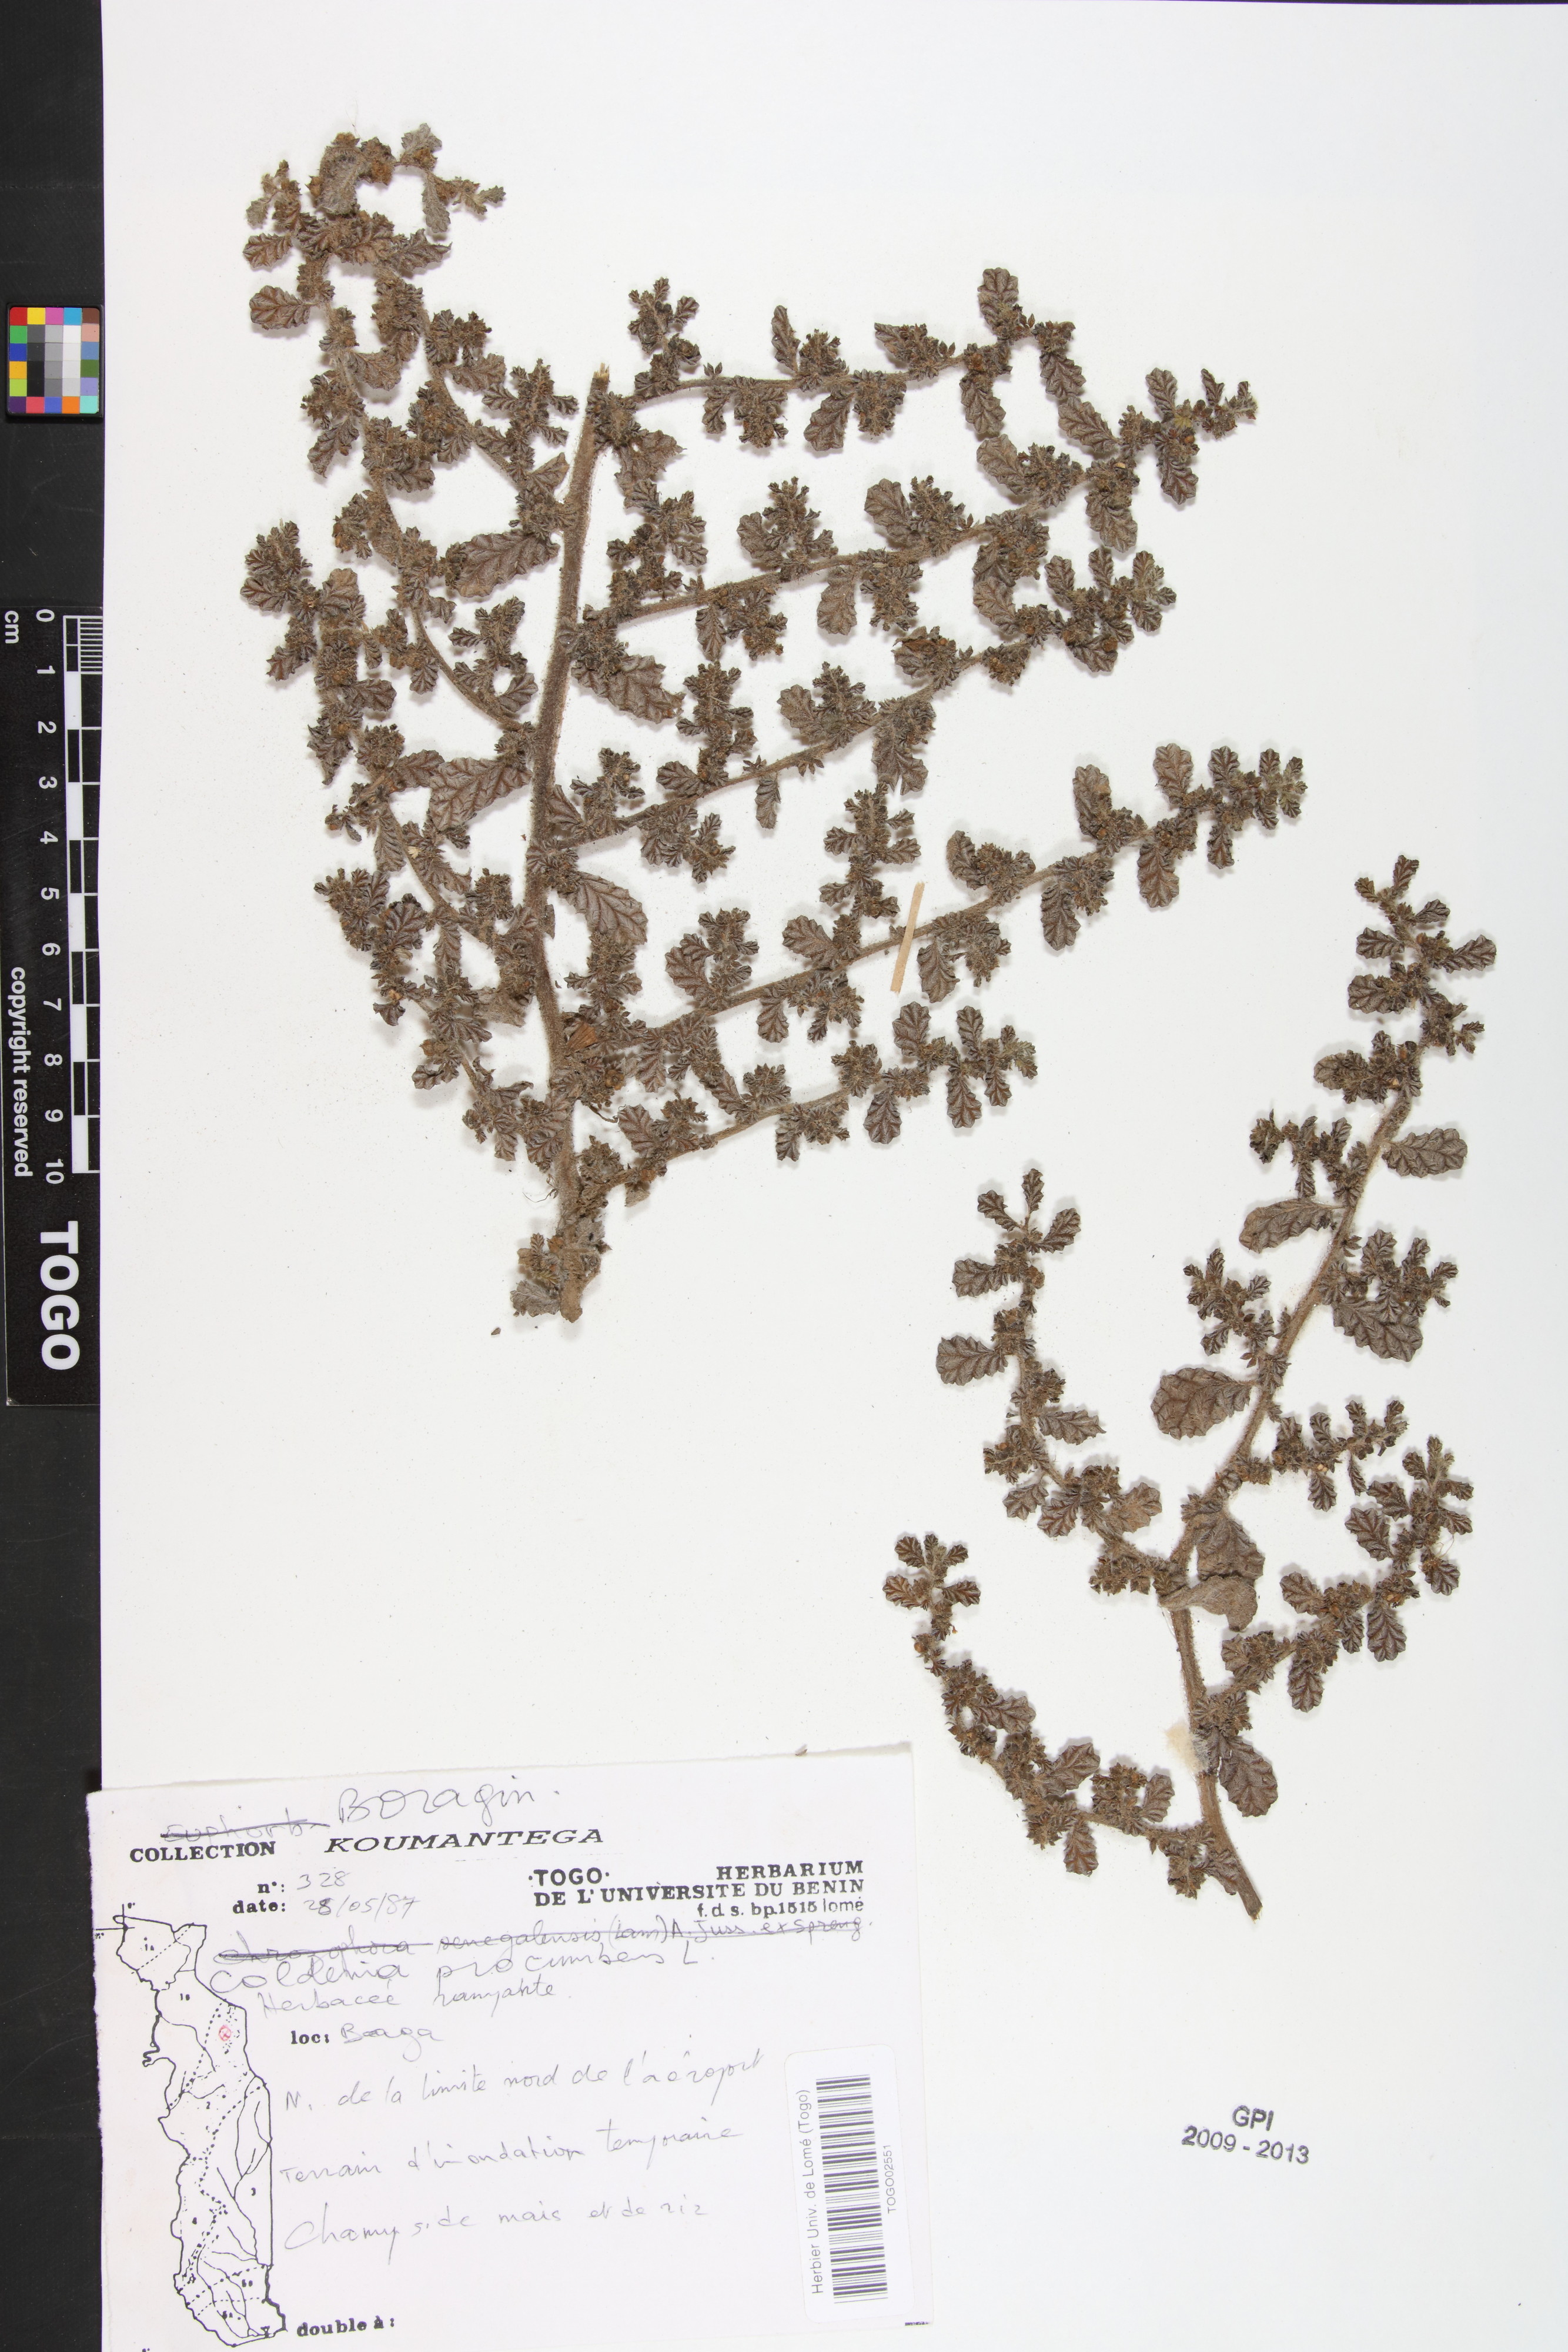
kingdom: Plantae
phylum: Tracheophyta
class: Magnoliopsida
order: Boraginales
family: Coldeniaceae
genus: Coldenia
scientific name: Coldenia procumbens
